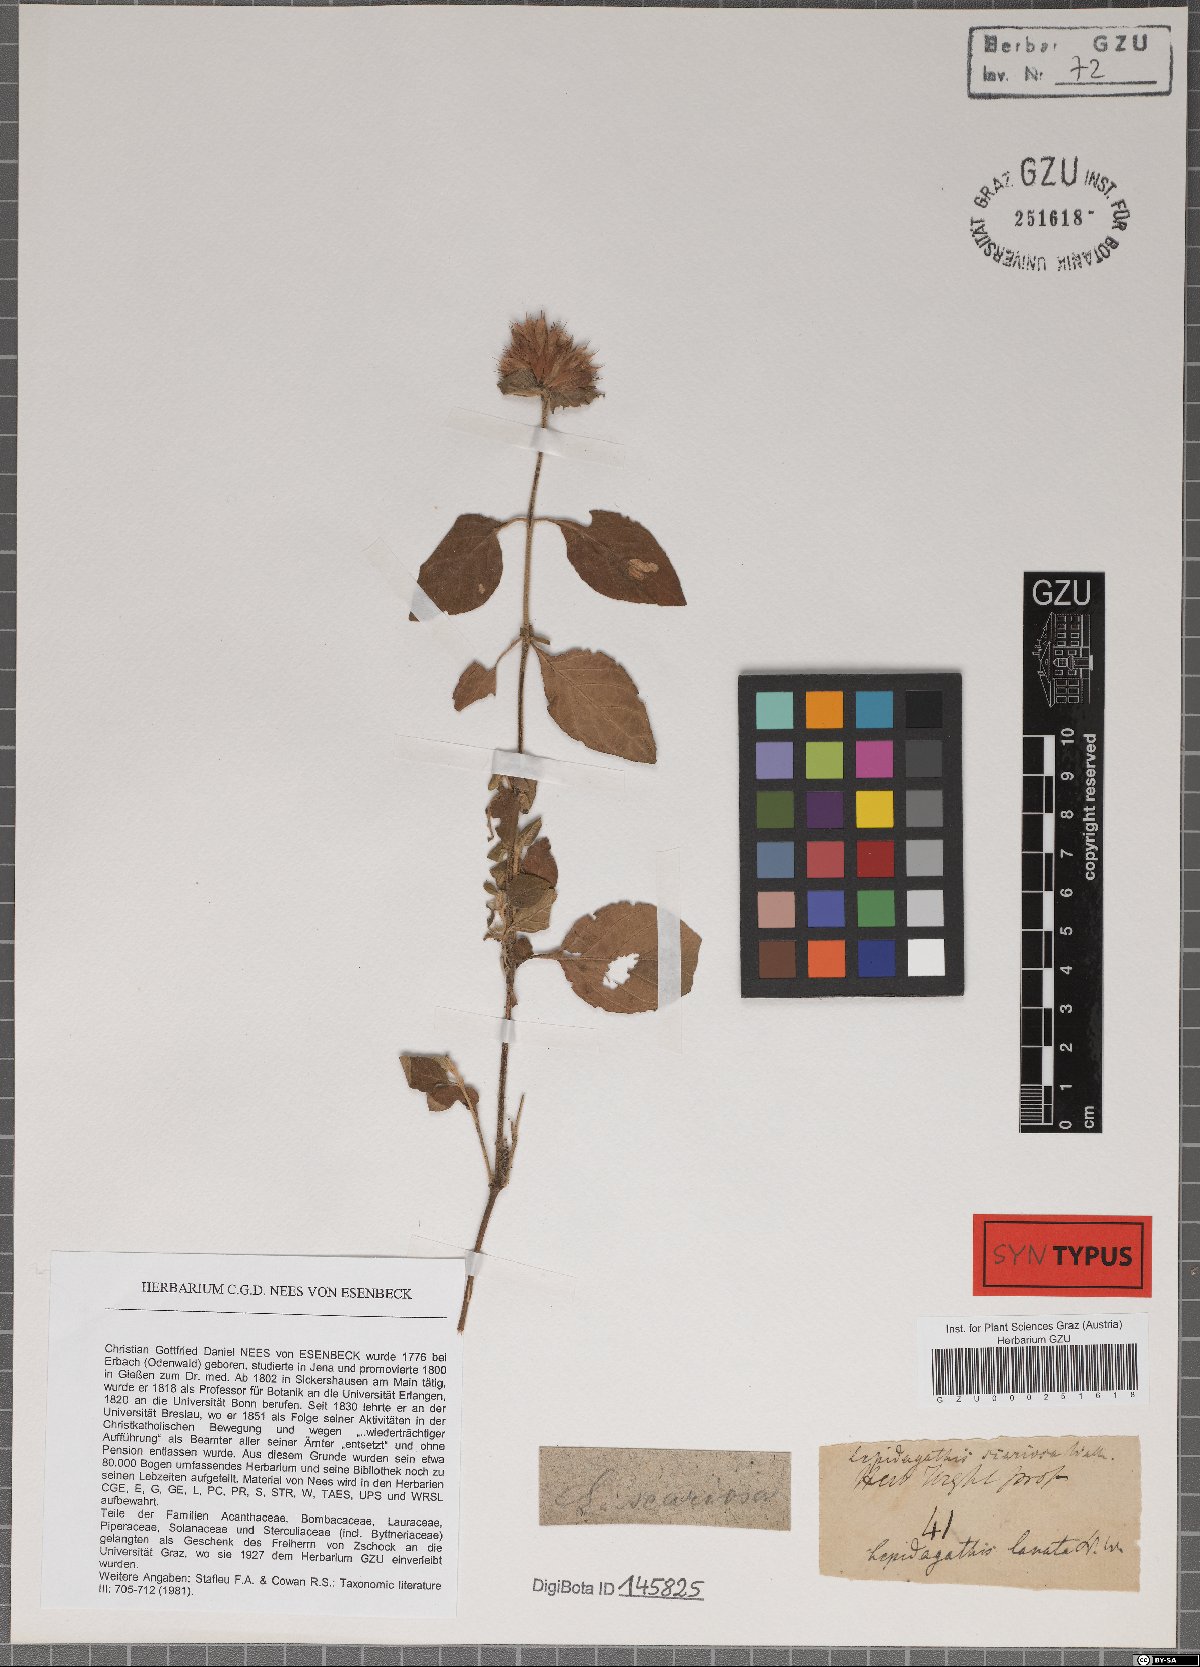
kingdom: Plantae
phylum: Tracheophyta
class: Magnoliopsida
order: Lamiales
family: Acanthaceae
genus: Lepidagathis
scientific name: Lepidagathis scariosa
